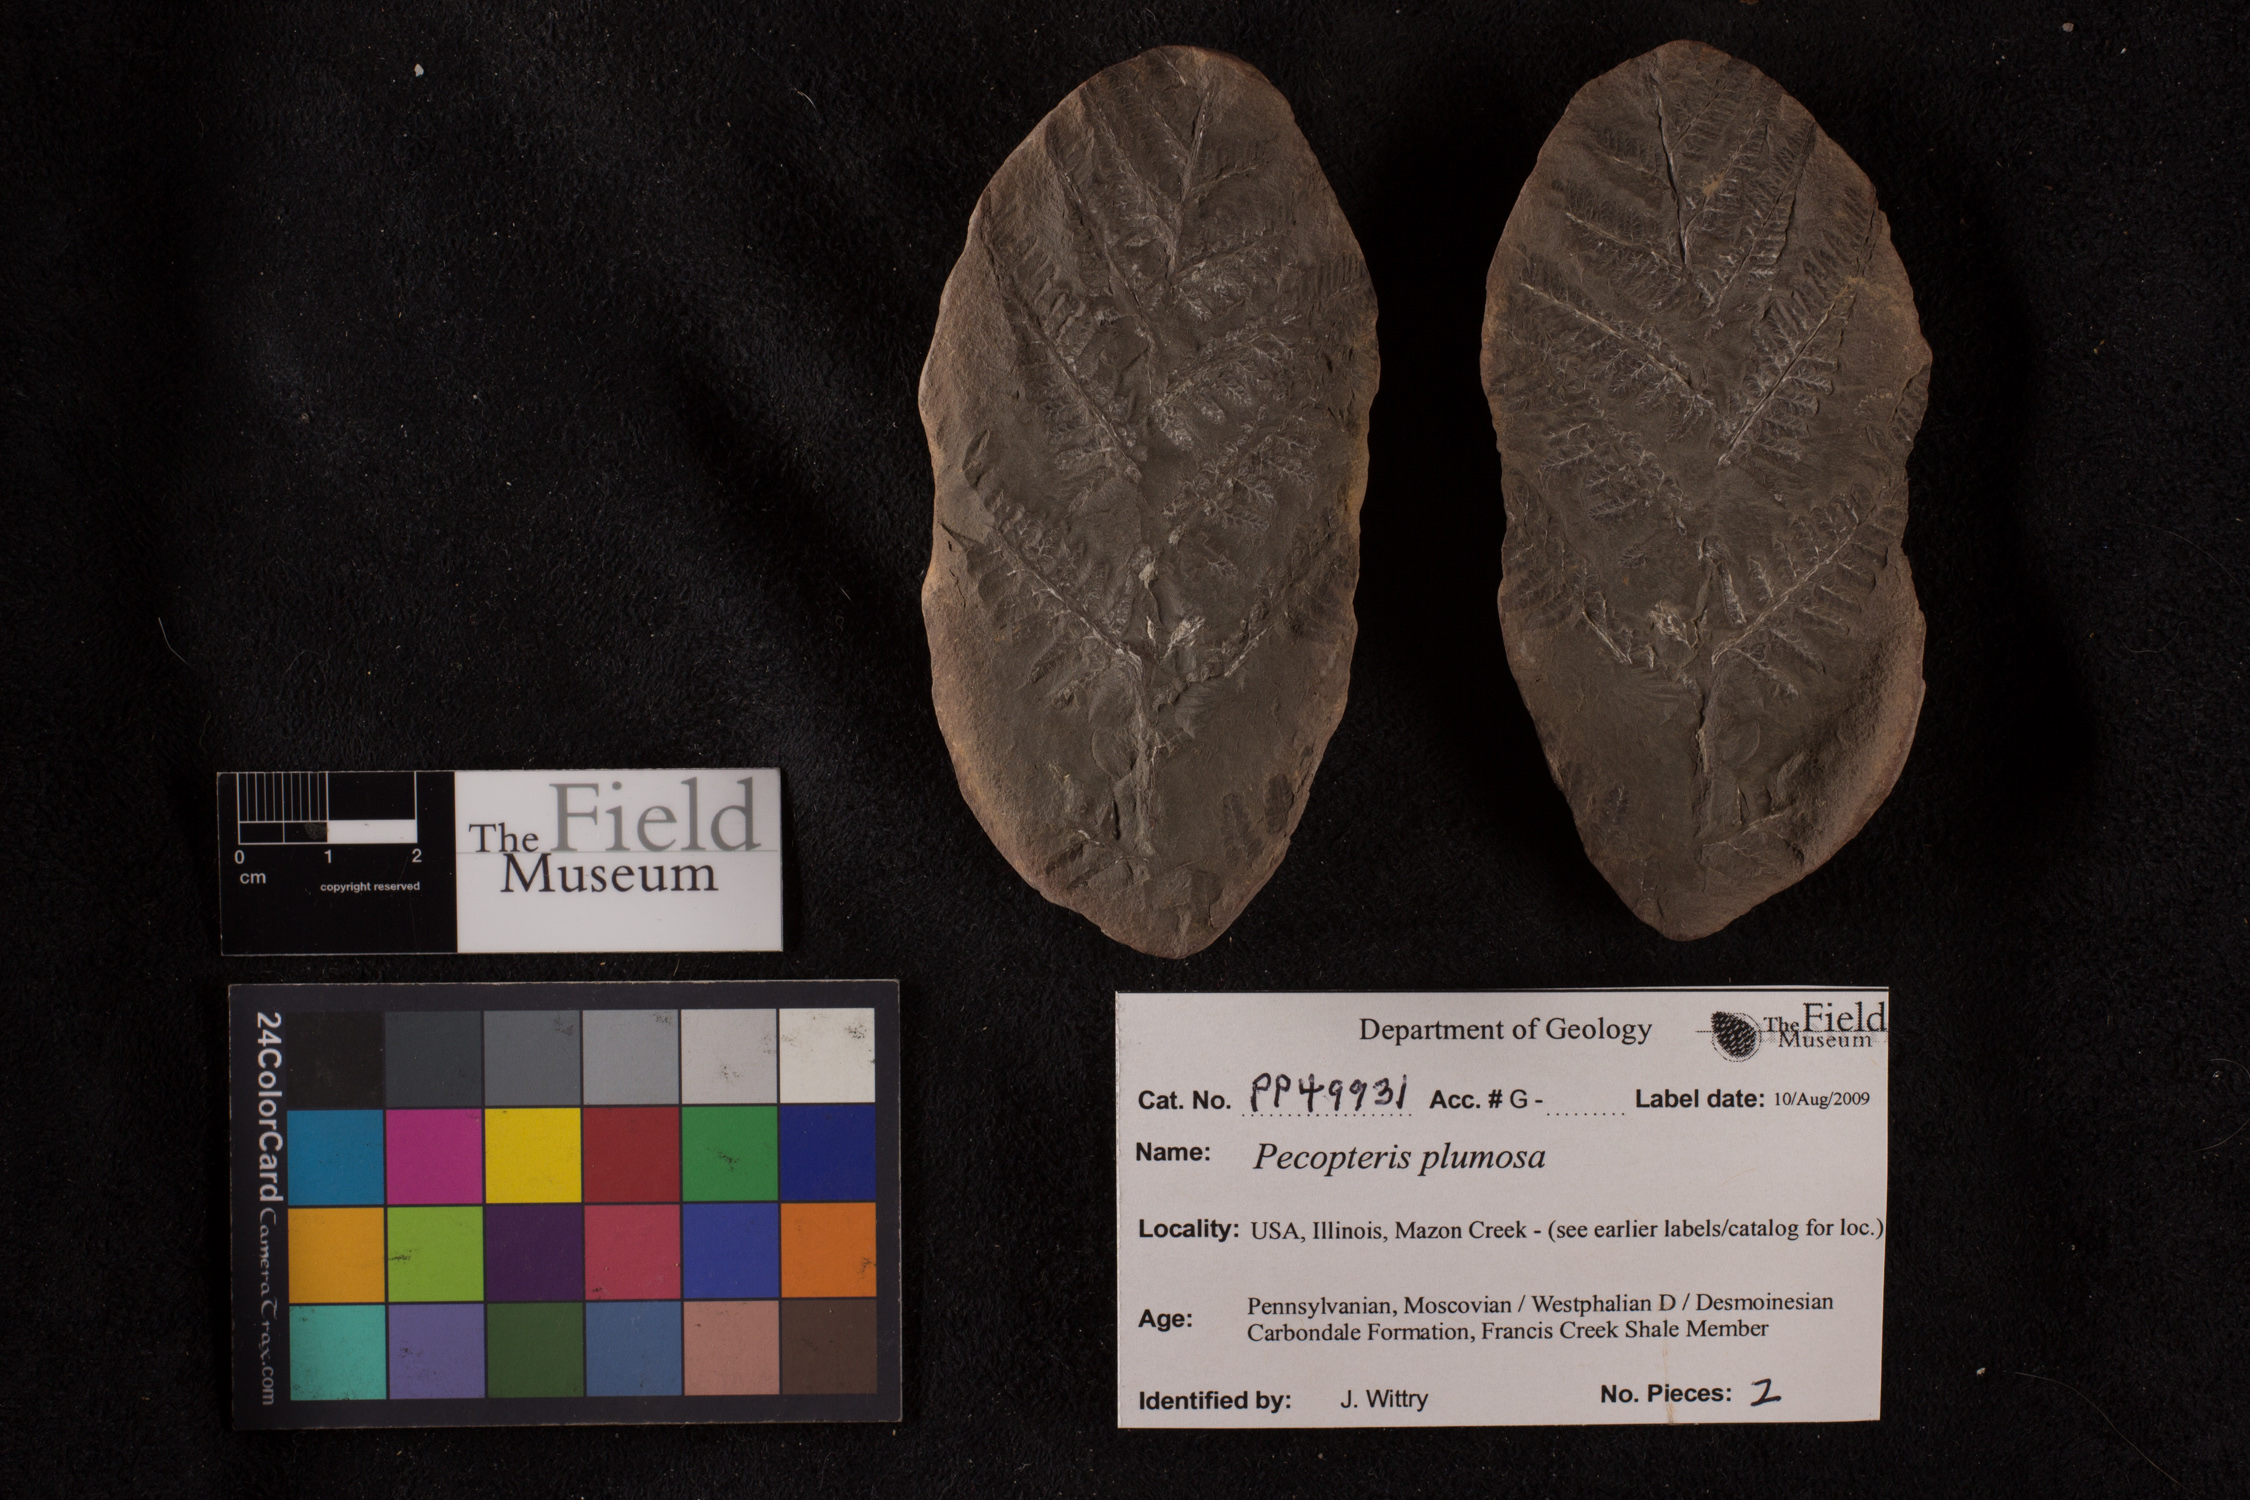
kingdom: Plantae
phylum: Tracheophyta
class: Polypodiopsida
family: Tedeleaceae
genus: Senftenbergia
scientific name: Senftenbergia
